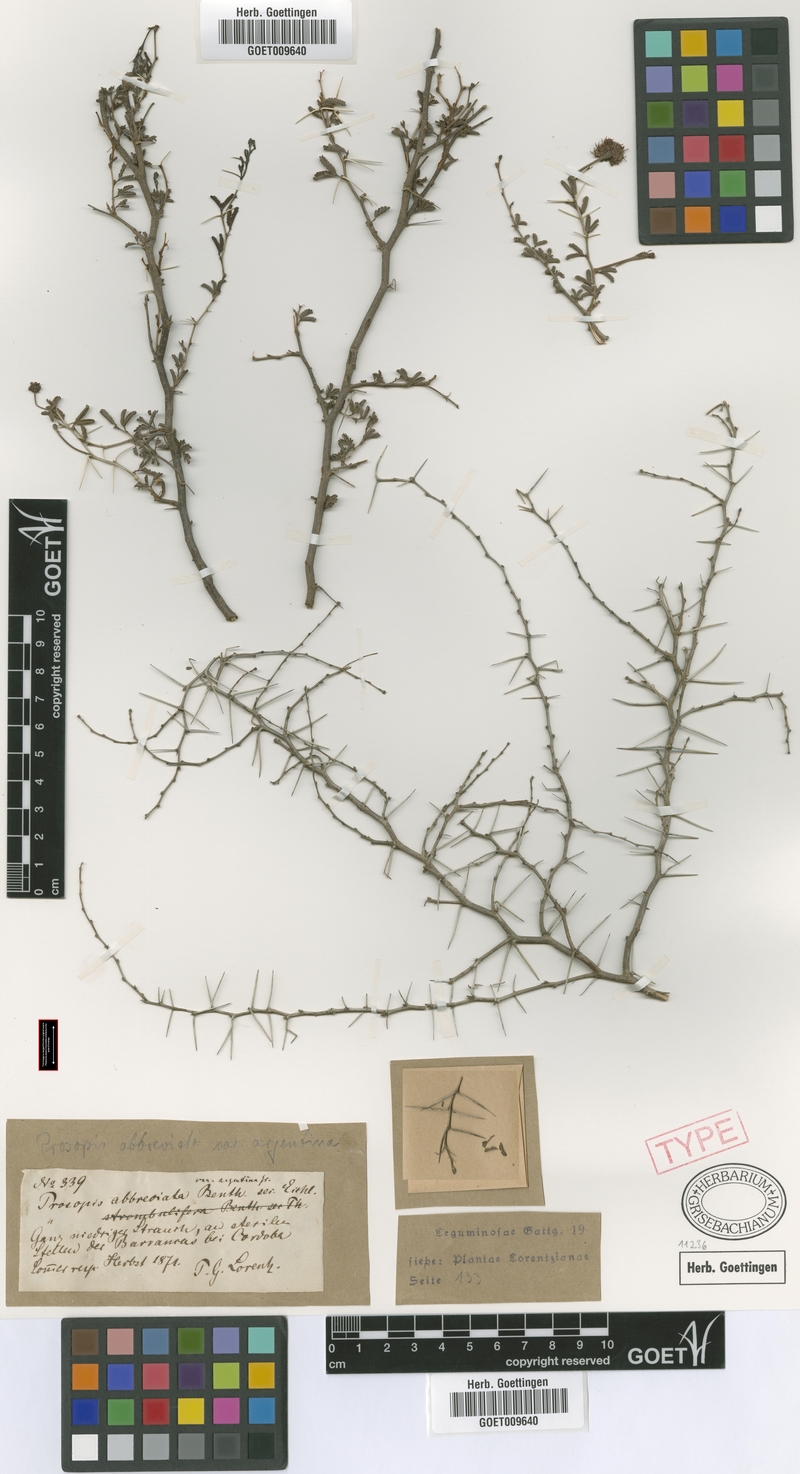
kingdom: Plantae
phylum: Tracheophyta
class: Magnoliopsida
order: Fabales
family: Fabaceae
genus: Prosopis
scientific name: Prosopis reptans
